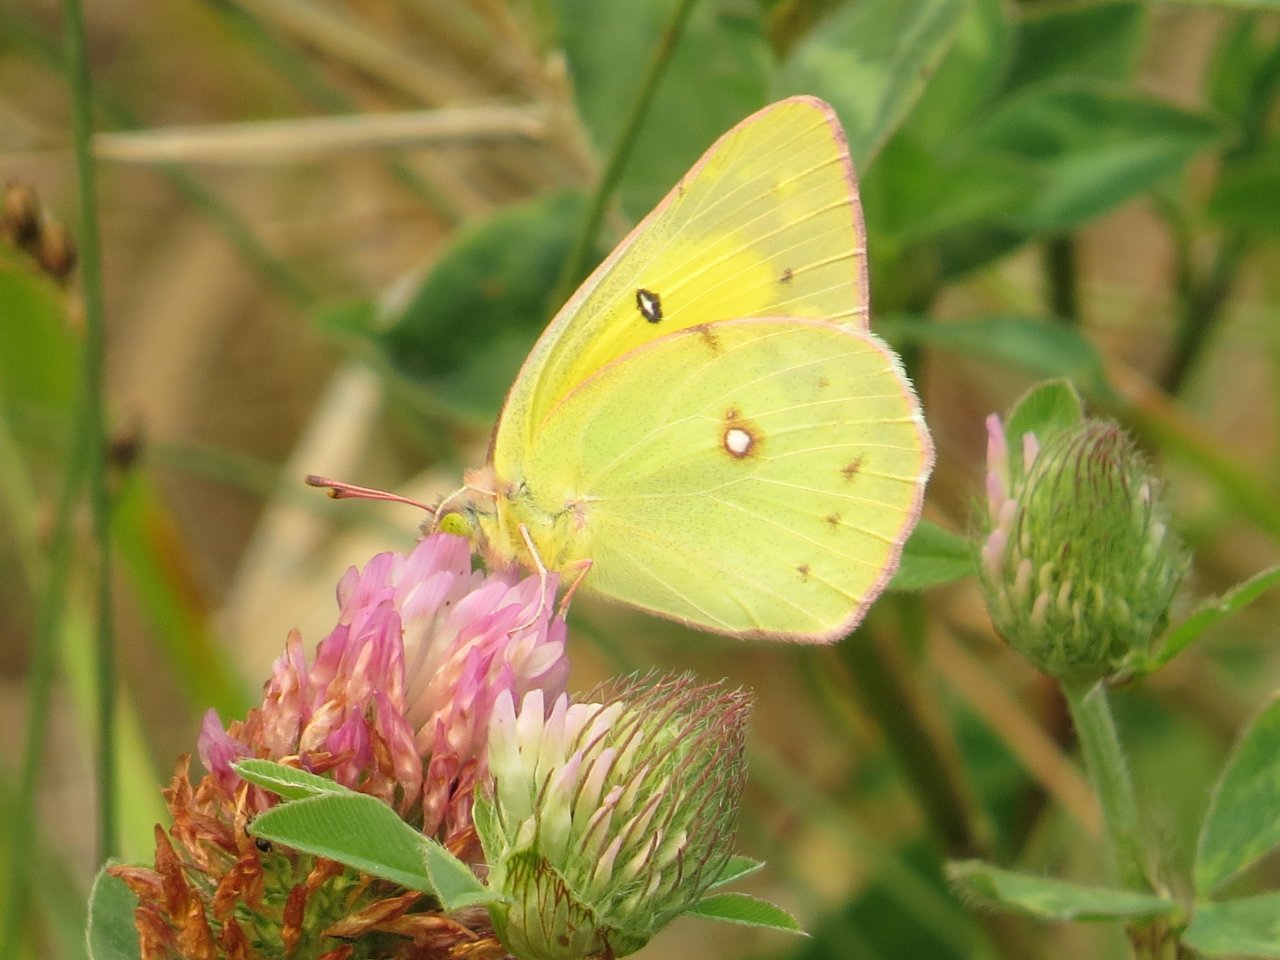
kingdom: Animalia
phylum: Arthropoda
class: Insecta
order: Lepidoptera
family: Pieridae
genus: Colias
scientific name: Colias philodice
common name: Clouded Sulphur
